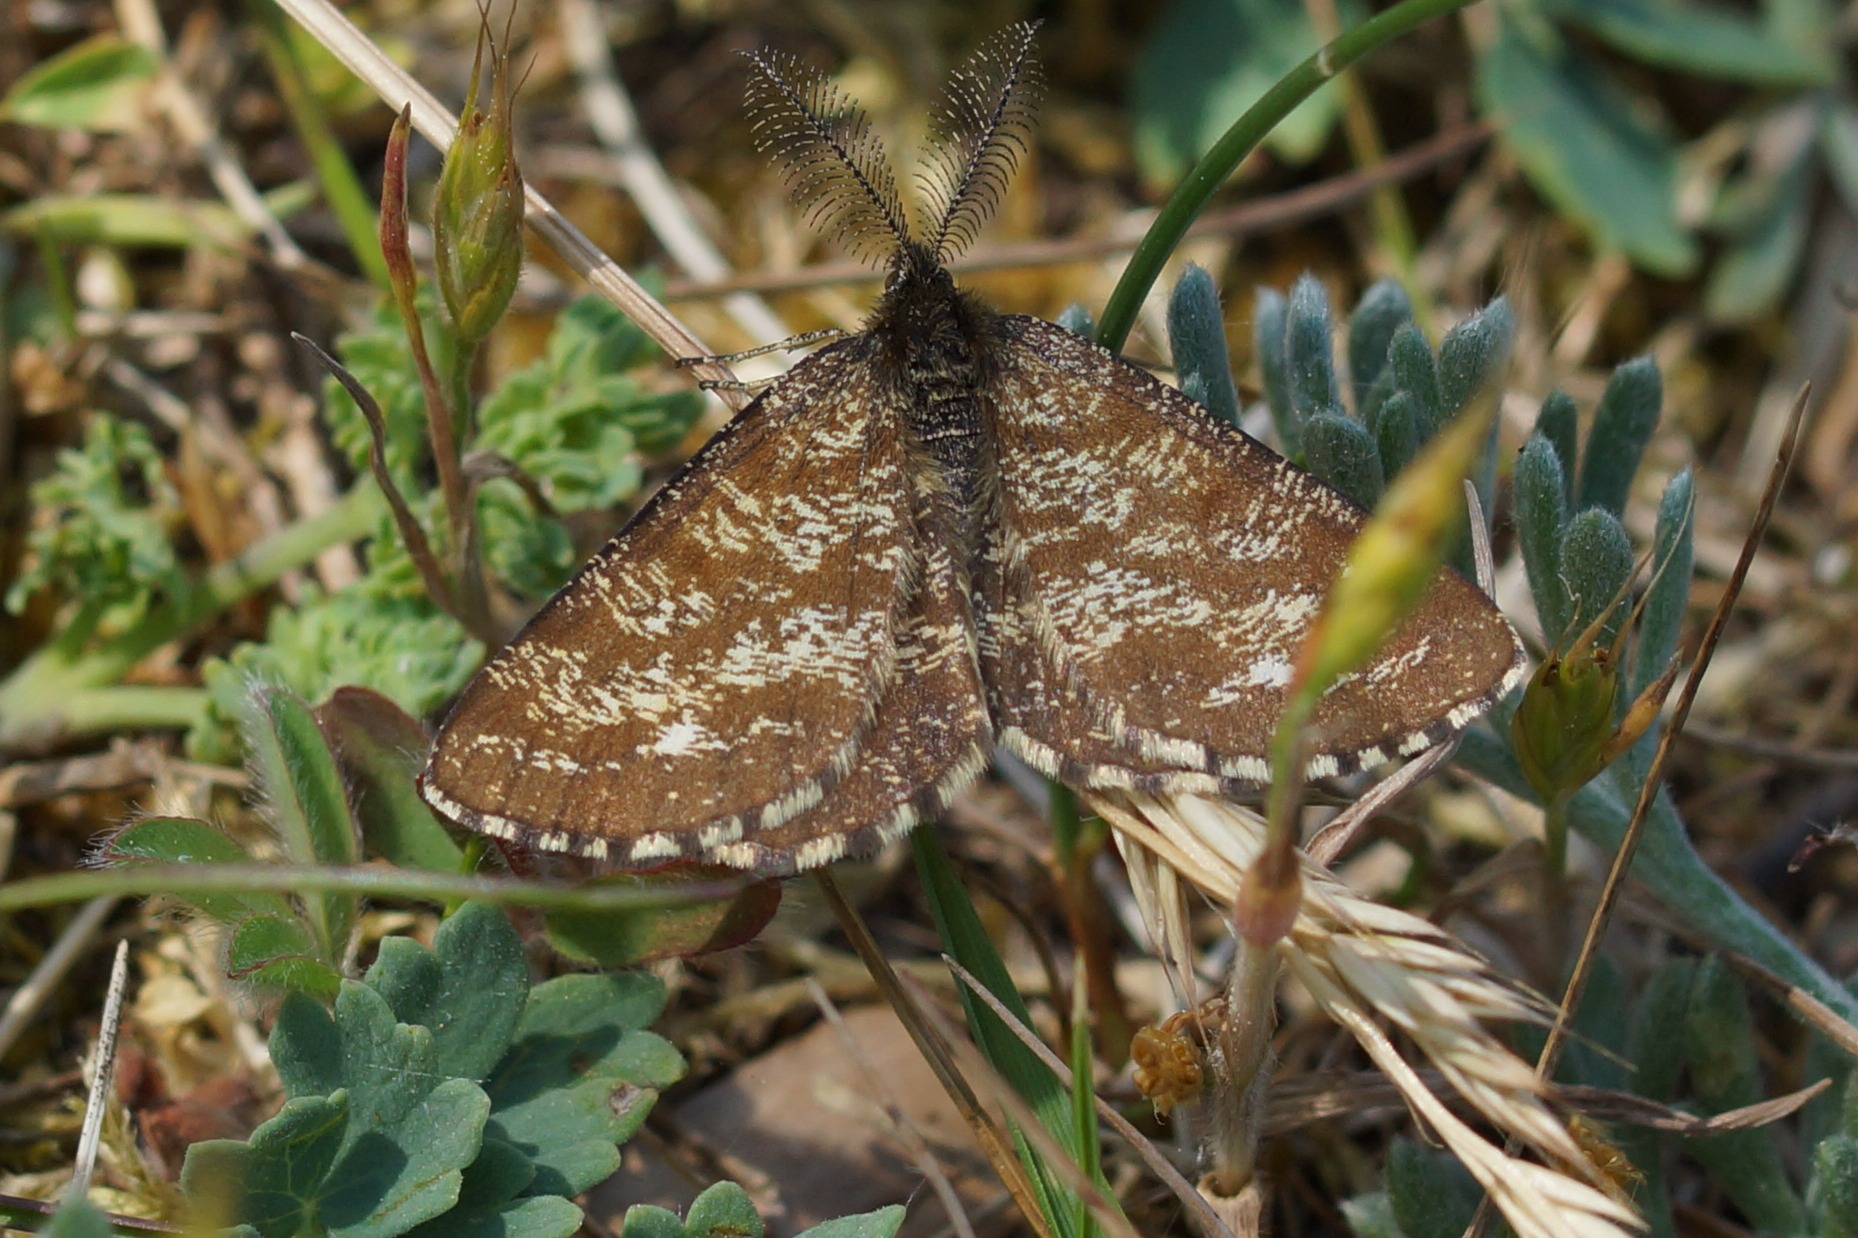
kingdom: Animalia
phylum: Arthropoda
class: Insecta
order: Lepidoptera
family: Geometridae
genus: Ematurga
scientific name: Ematurga atomaria
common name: Lyngmåler
